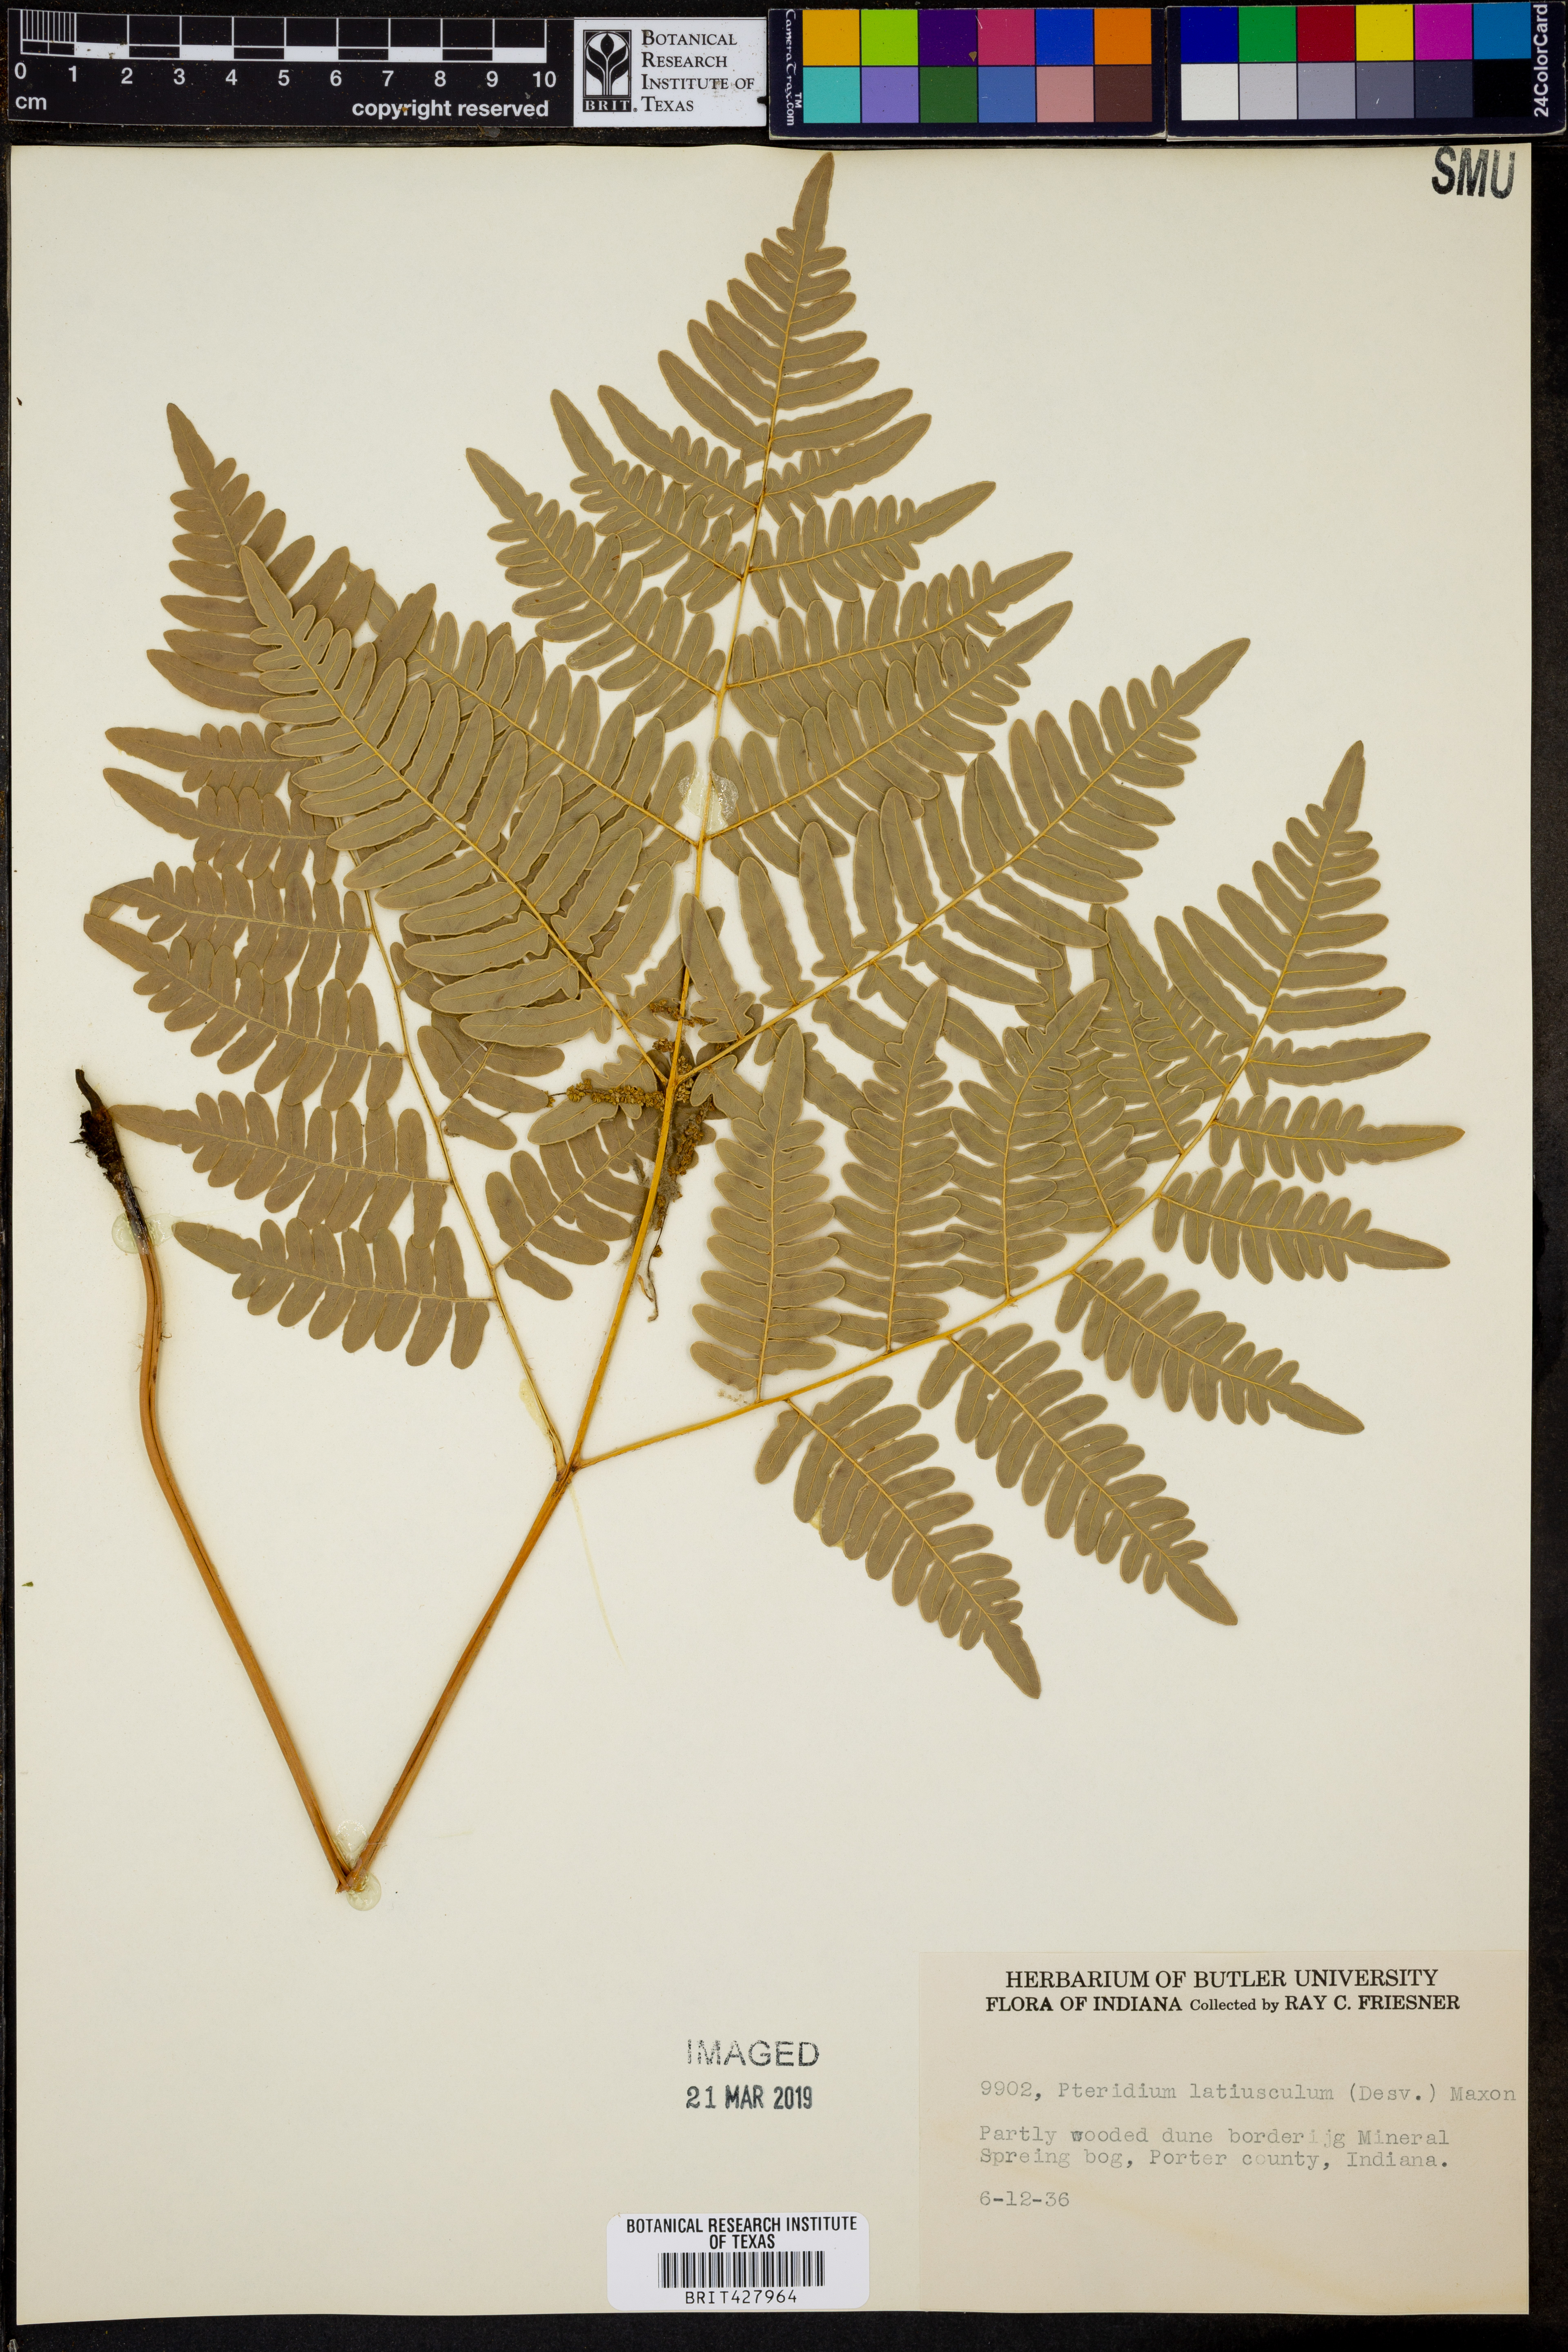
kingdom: Plantae
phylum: Tracheophyta
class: Polypodiopsida
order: Polypodiales
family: Dennstaedtiaceae
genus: Pteridium
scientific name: Pteridium aquilinum
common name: Bracken
